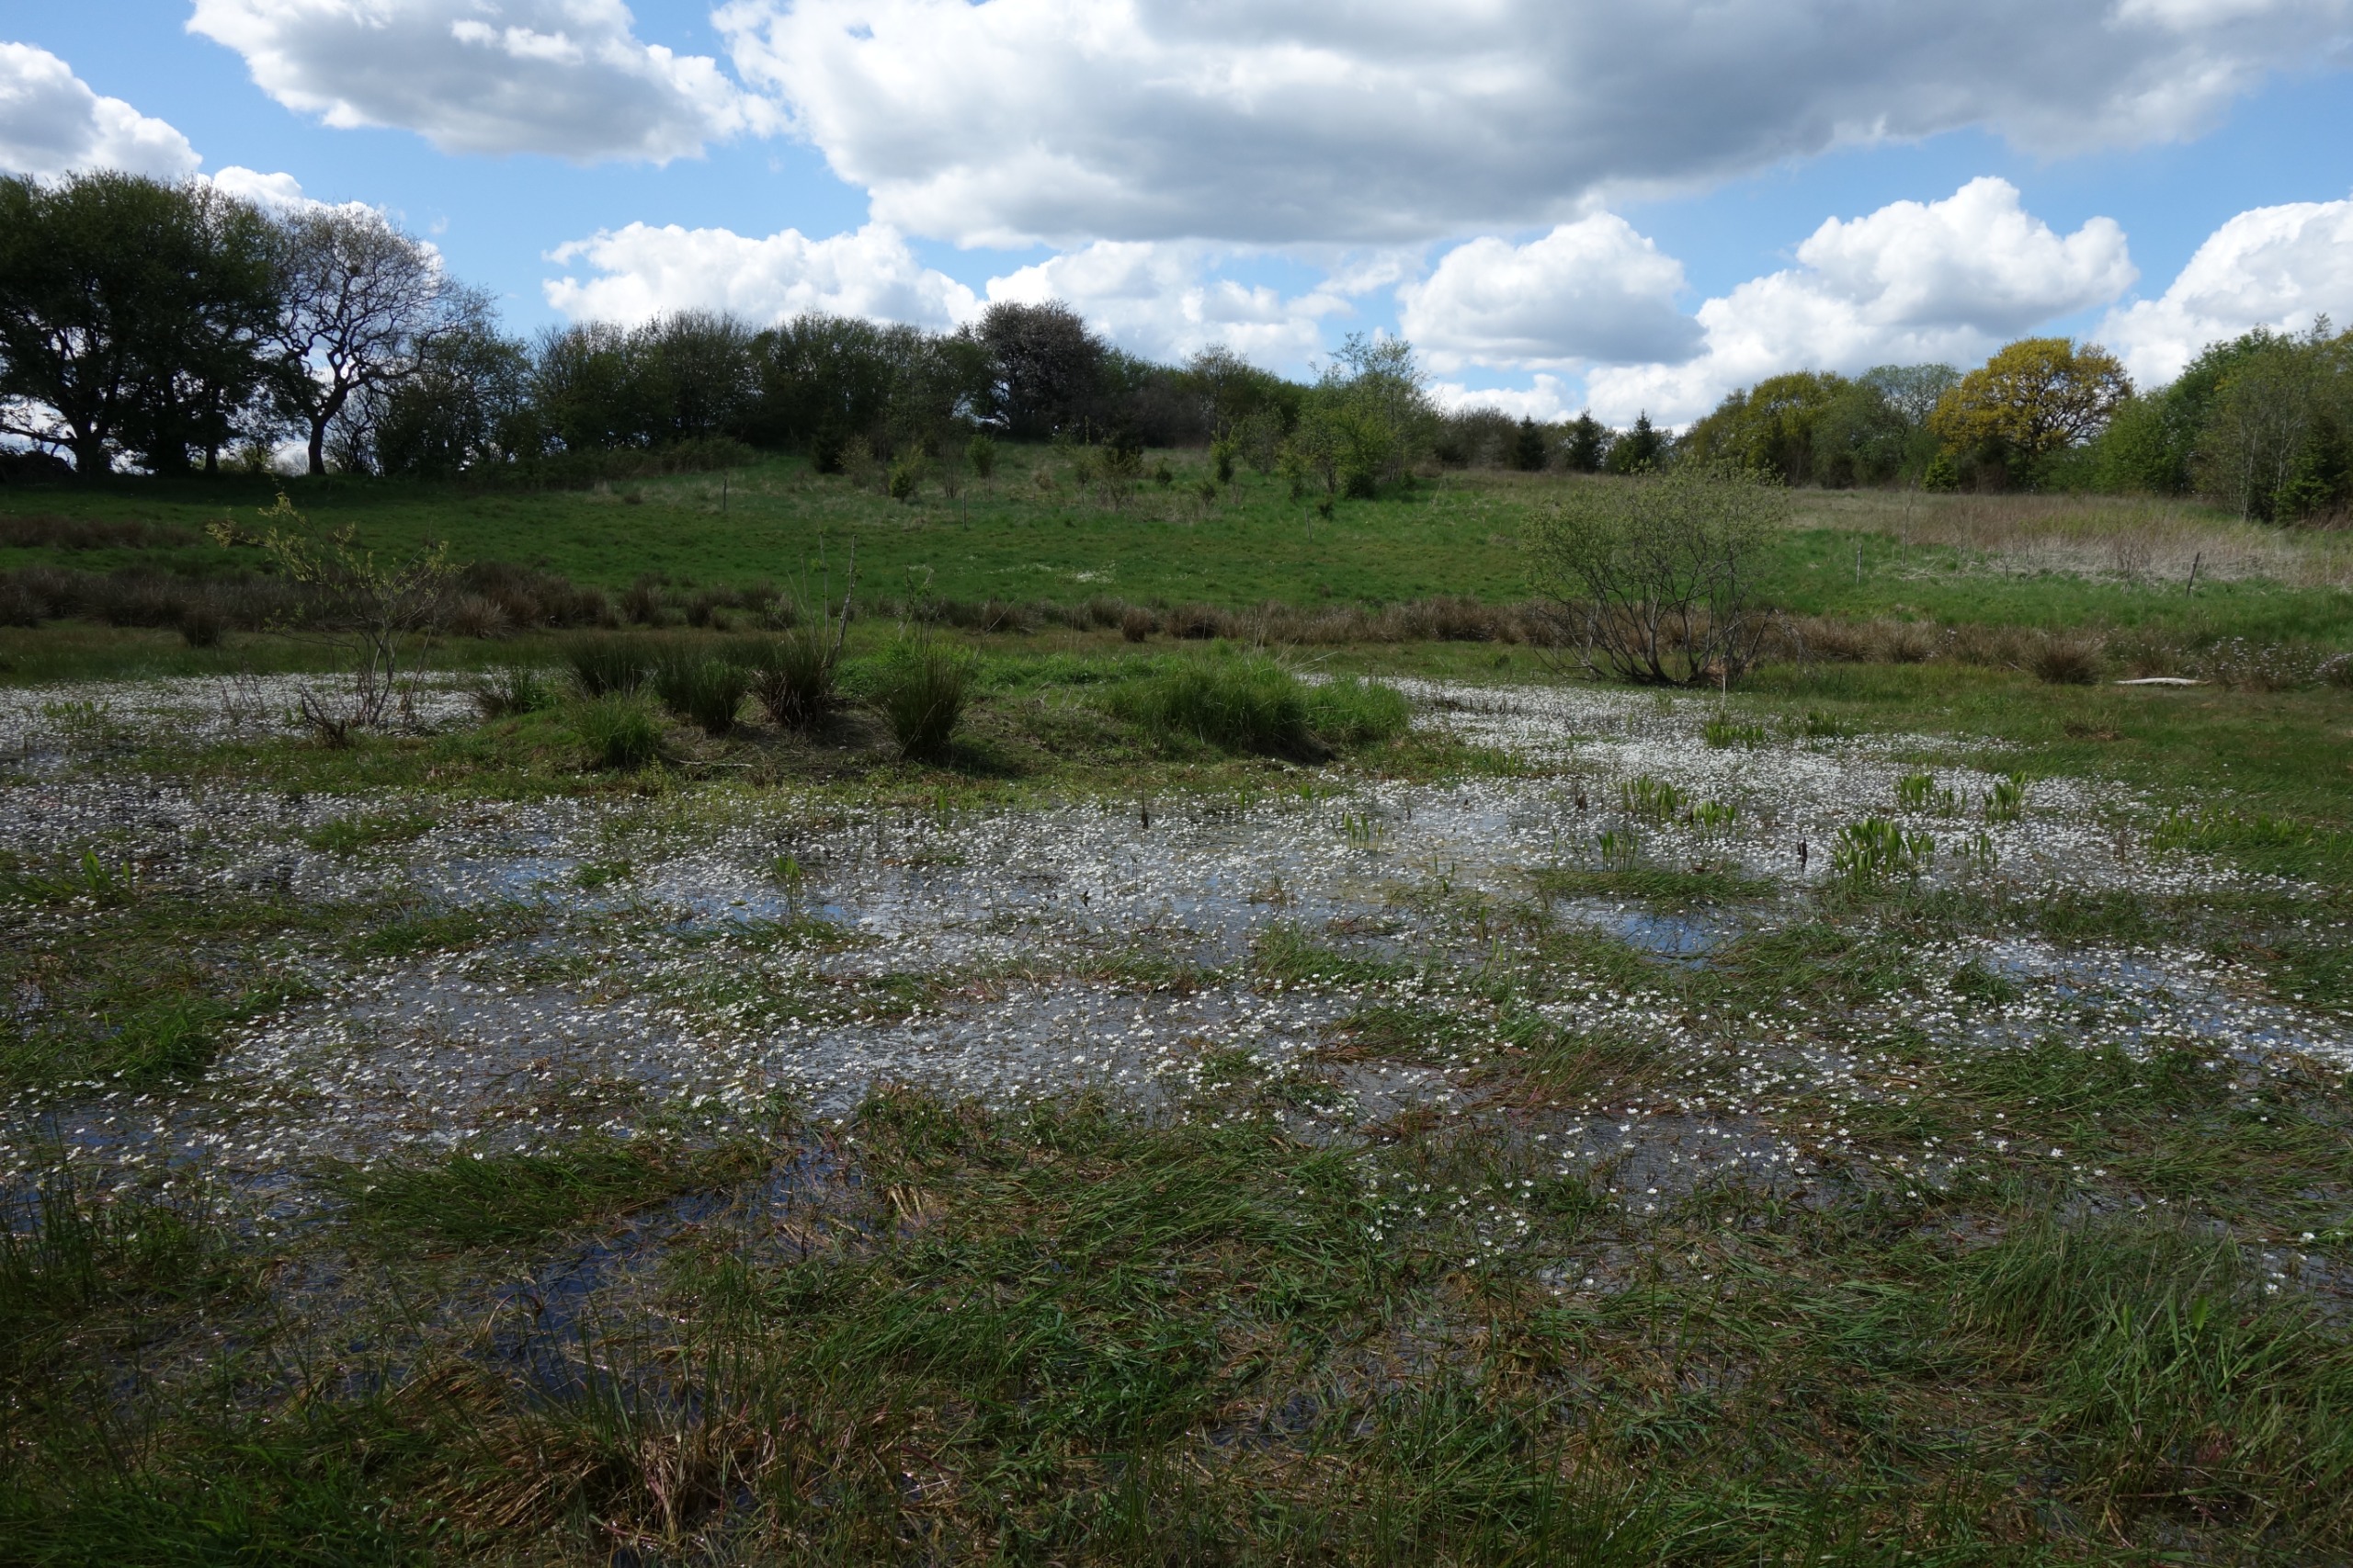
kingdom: Plantae
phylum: Tracheophyta
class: Magnoliopsida
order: Ranunculales
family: Ranunculaceae
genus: Ranunculus
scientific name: Ranunculus peltatus
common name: Storblomstret vandranunkel
